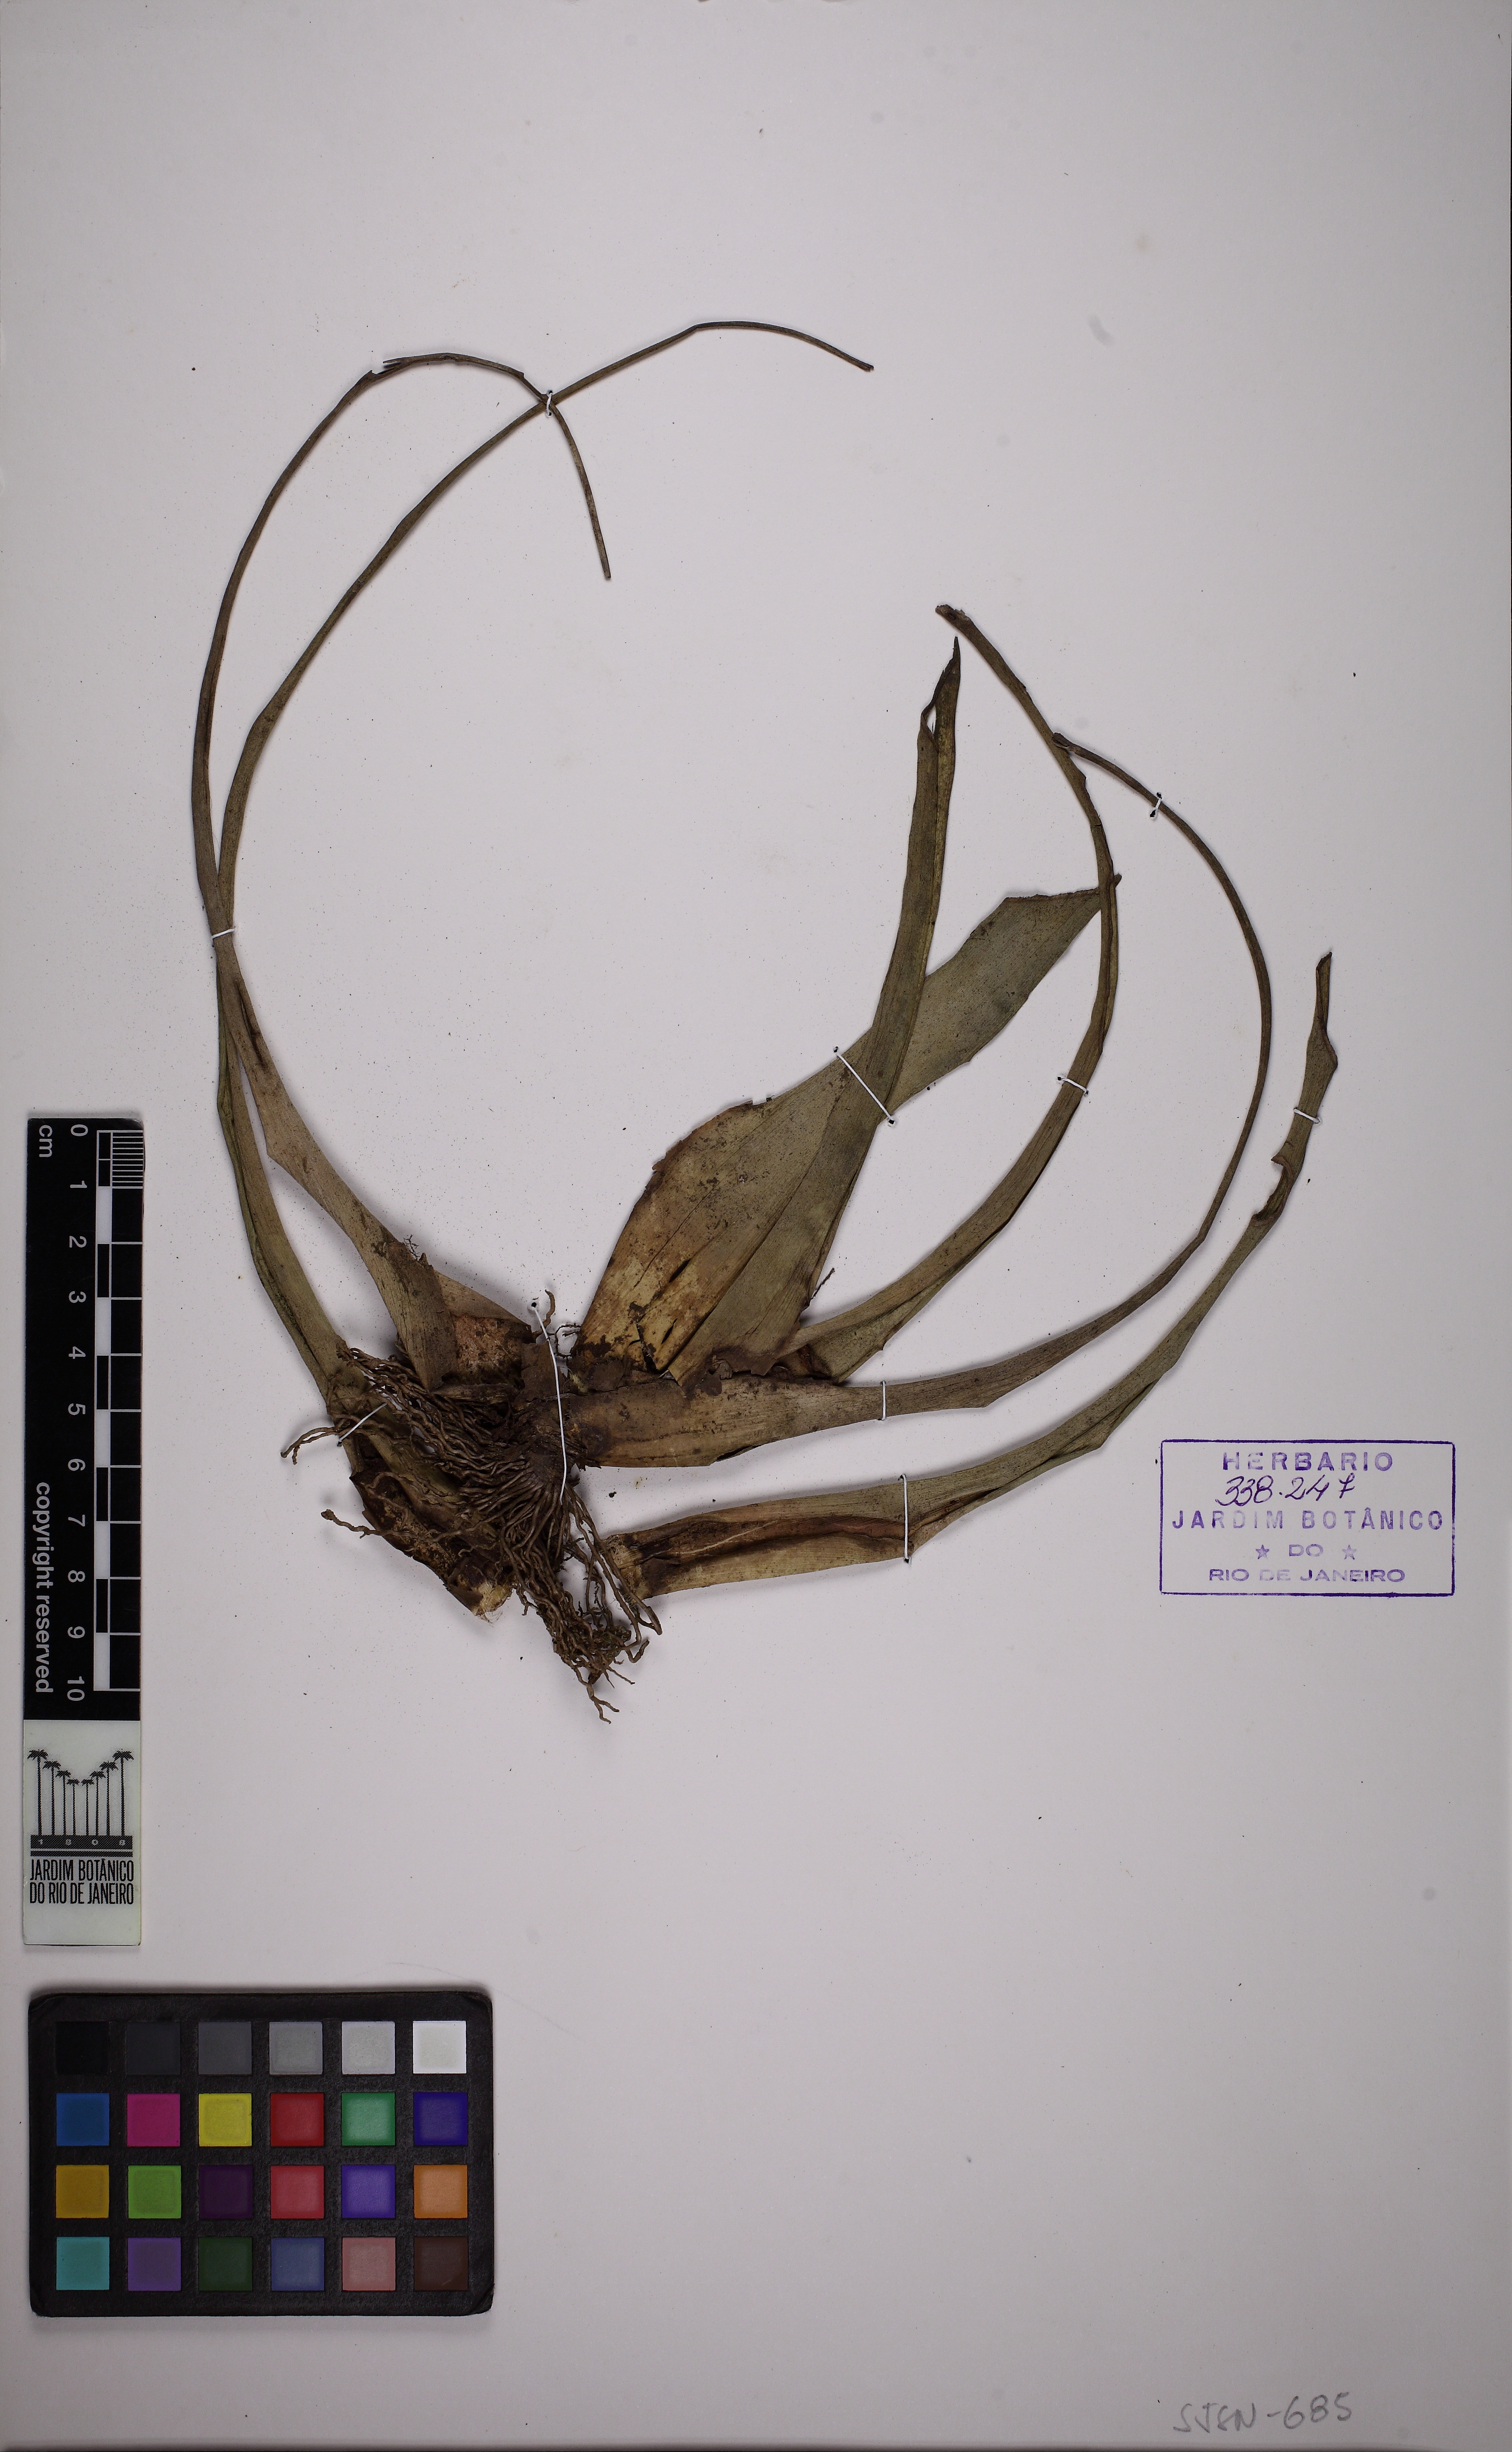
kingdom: Plantae
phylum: Tracheophyta
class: Liliopsida
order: Poales
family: Bromeliaceae
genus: Tillandsia
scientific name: Tillandsia polystachia
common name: Airplant
